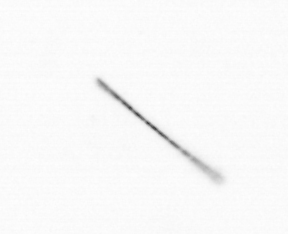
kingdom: Chromista
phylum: Ochrophyta
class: Bacillariophyceae
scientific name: Bacillariophyceae
